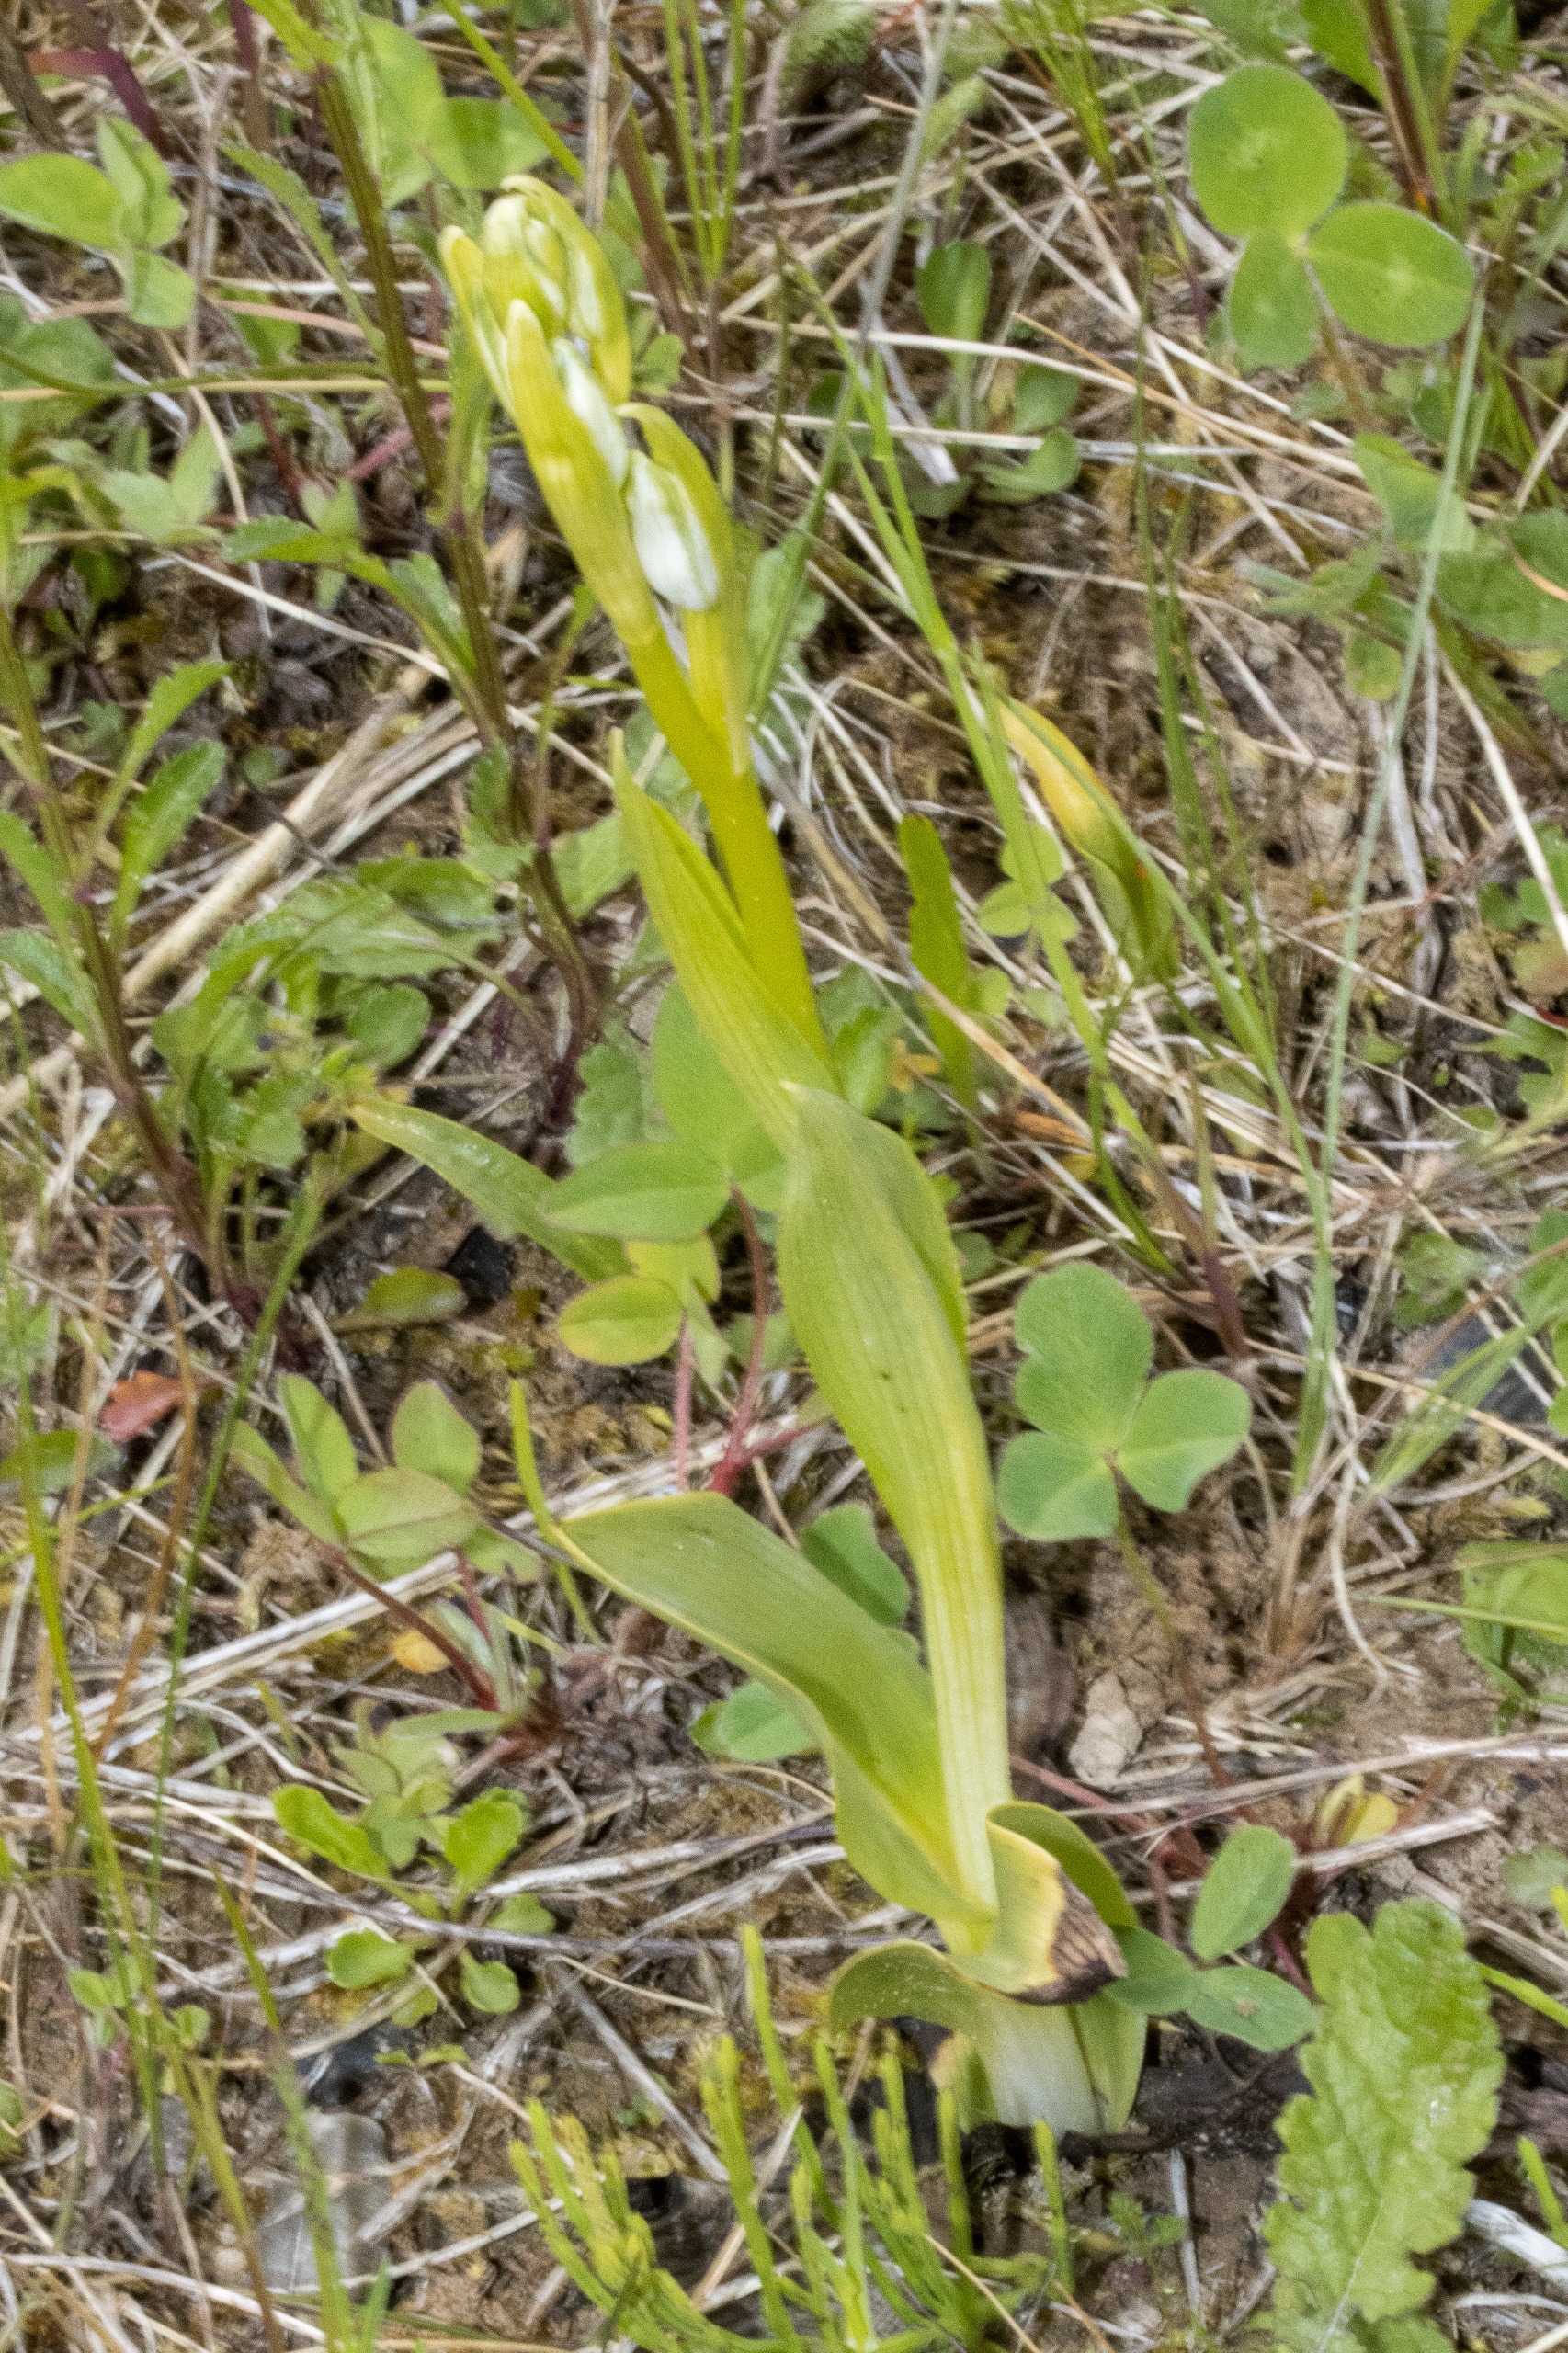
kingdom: Plantae
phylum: Tracheophyta
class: Liliopsida
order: Asparagales
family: Orchidaceae
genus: Ophrys
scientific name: Ophrys apifera
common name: Biblomst
